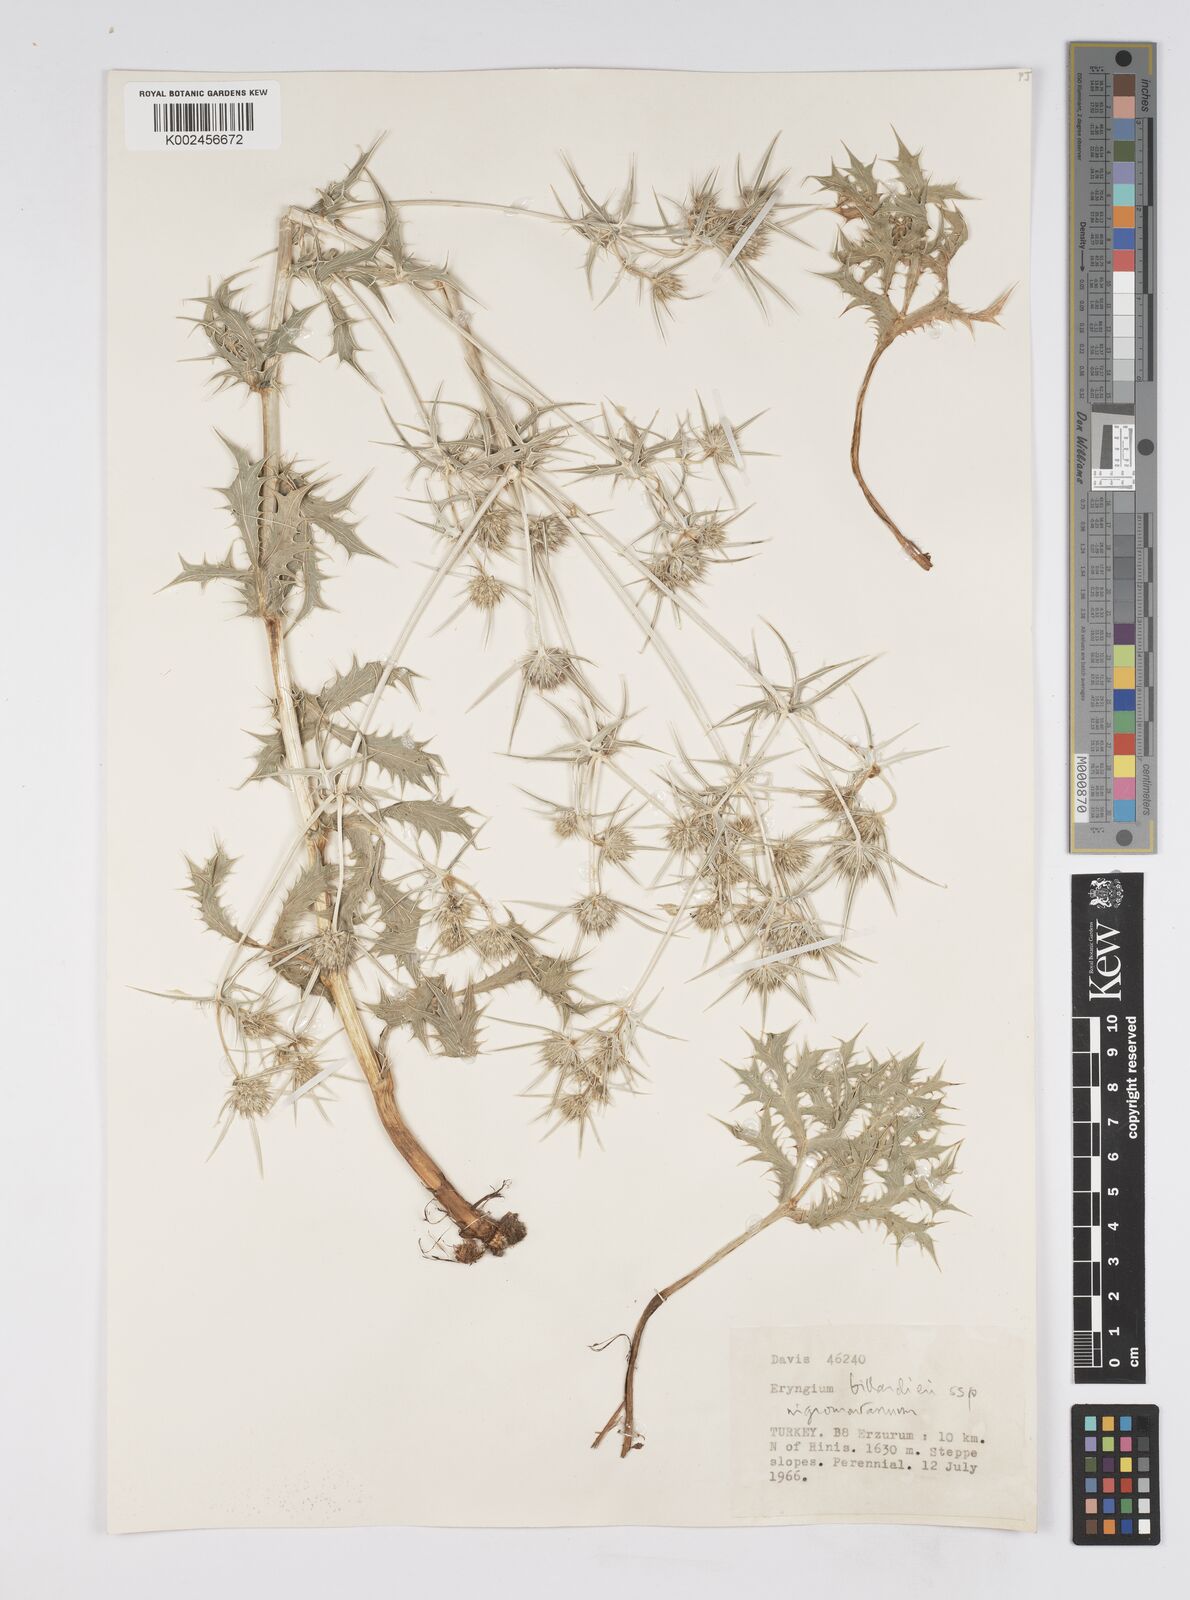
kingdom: Plantae
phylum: Tracheophyta
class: Magnoliopsida
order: Apiales
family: Apiaceae
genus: Eryngium
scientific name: Eryngium billardierei
